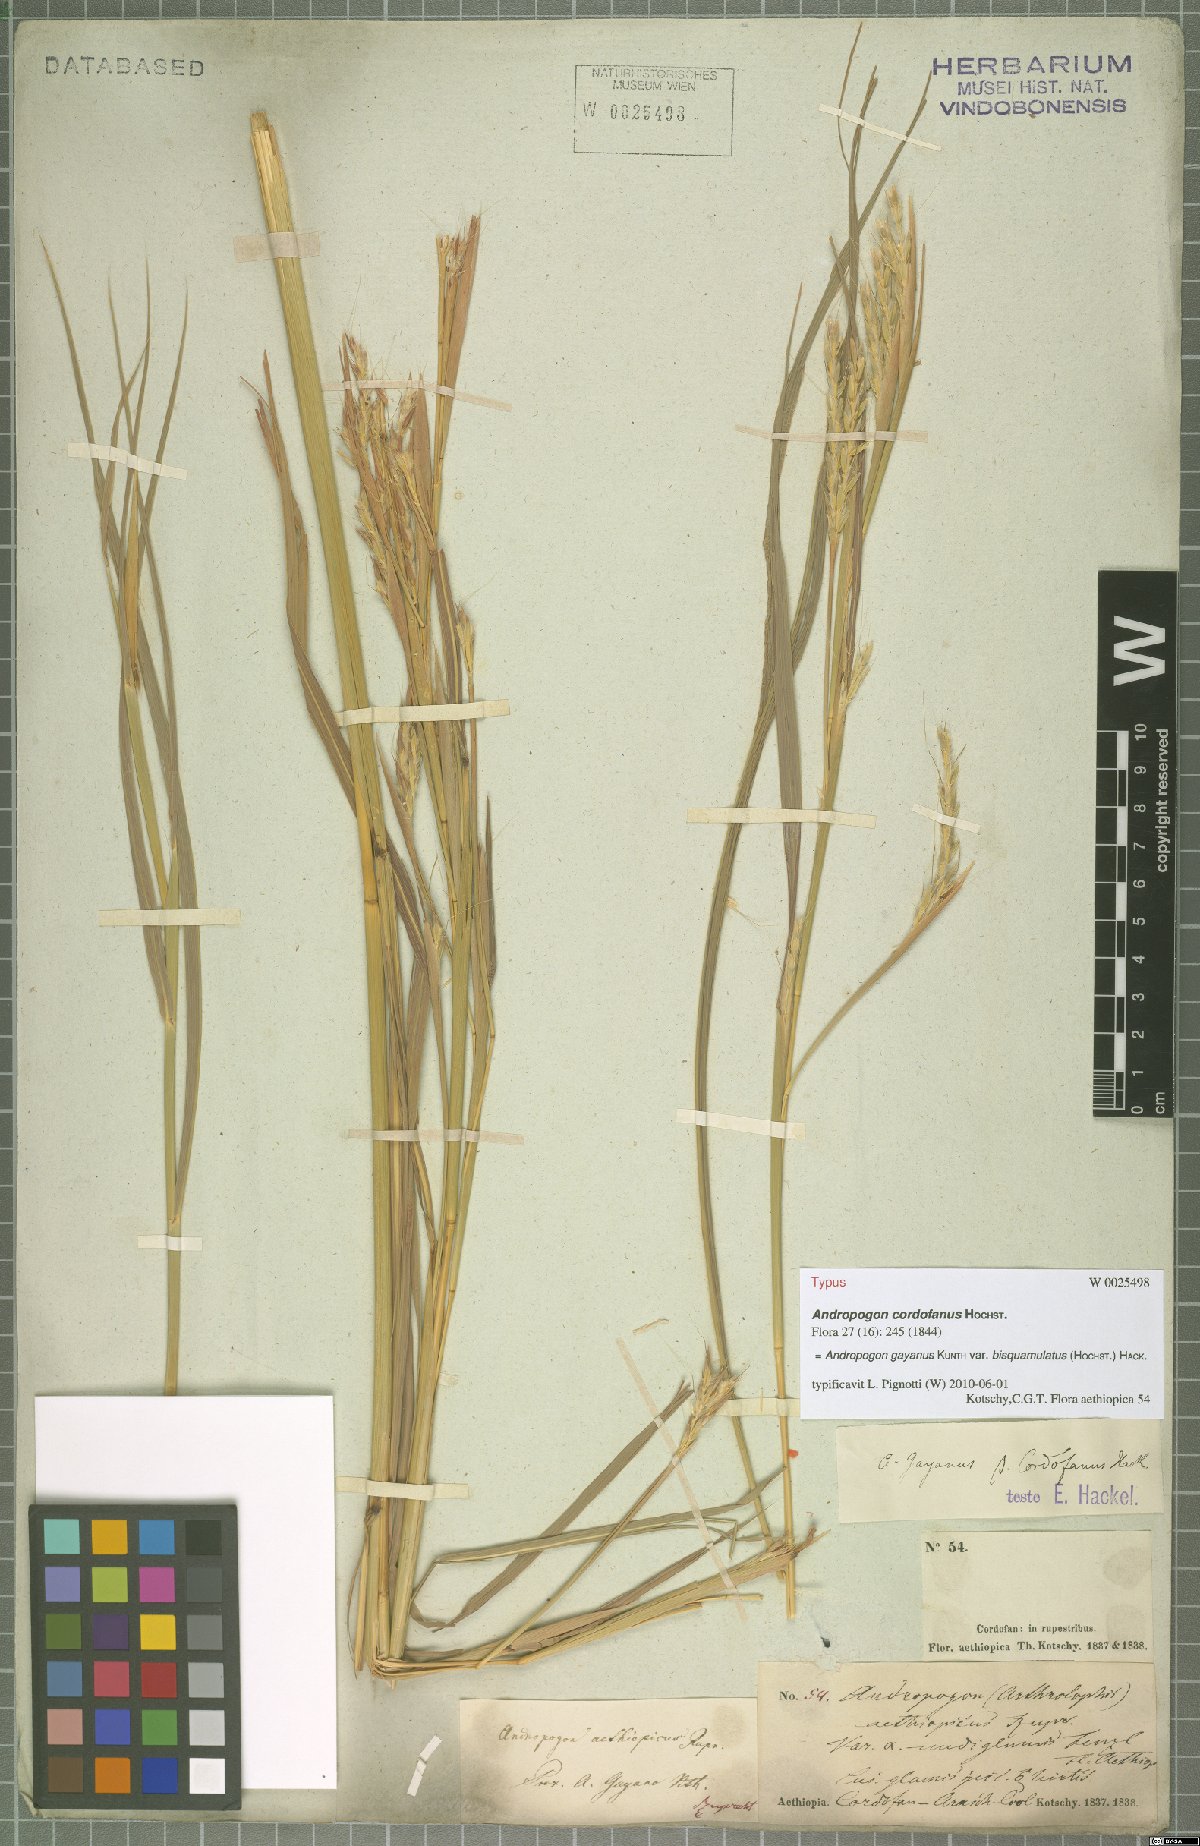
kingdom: Plantae
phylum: Tracheophyta
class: Liliopsida
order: Poales
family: Poaceae
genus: Andropogon
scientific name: Andropogon gayanus
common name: Tambuki grass
